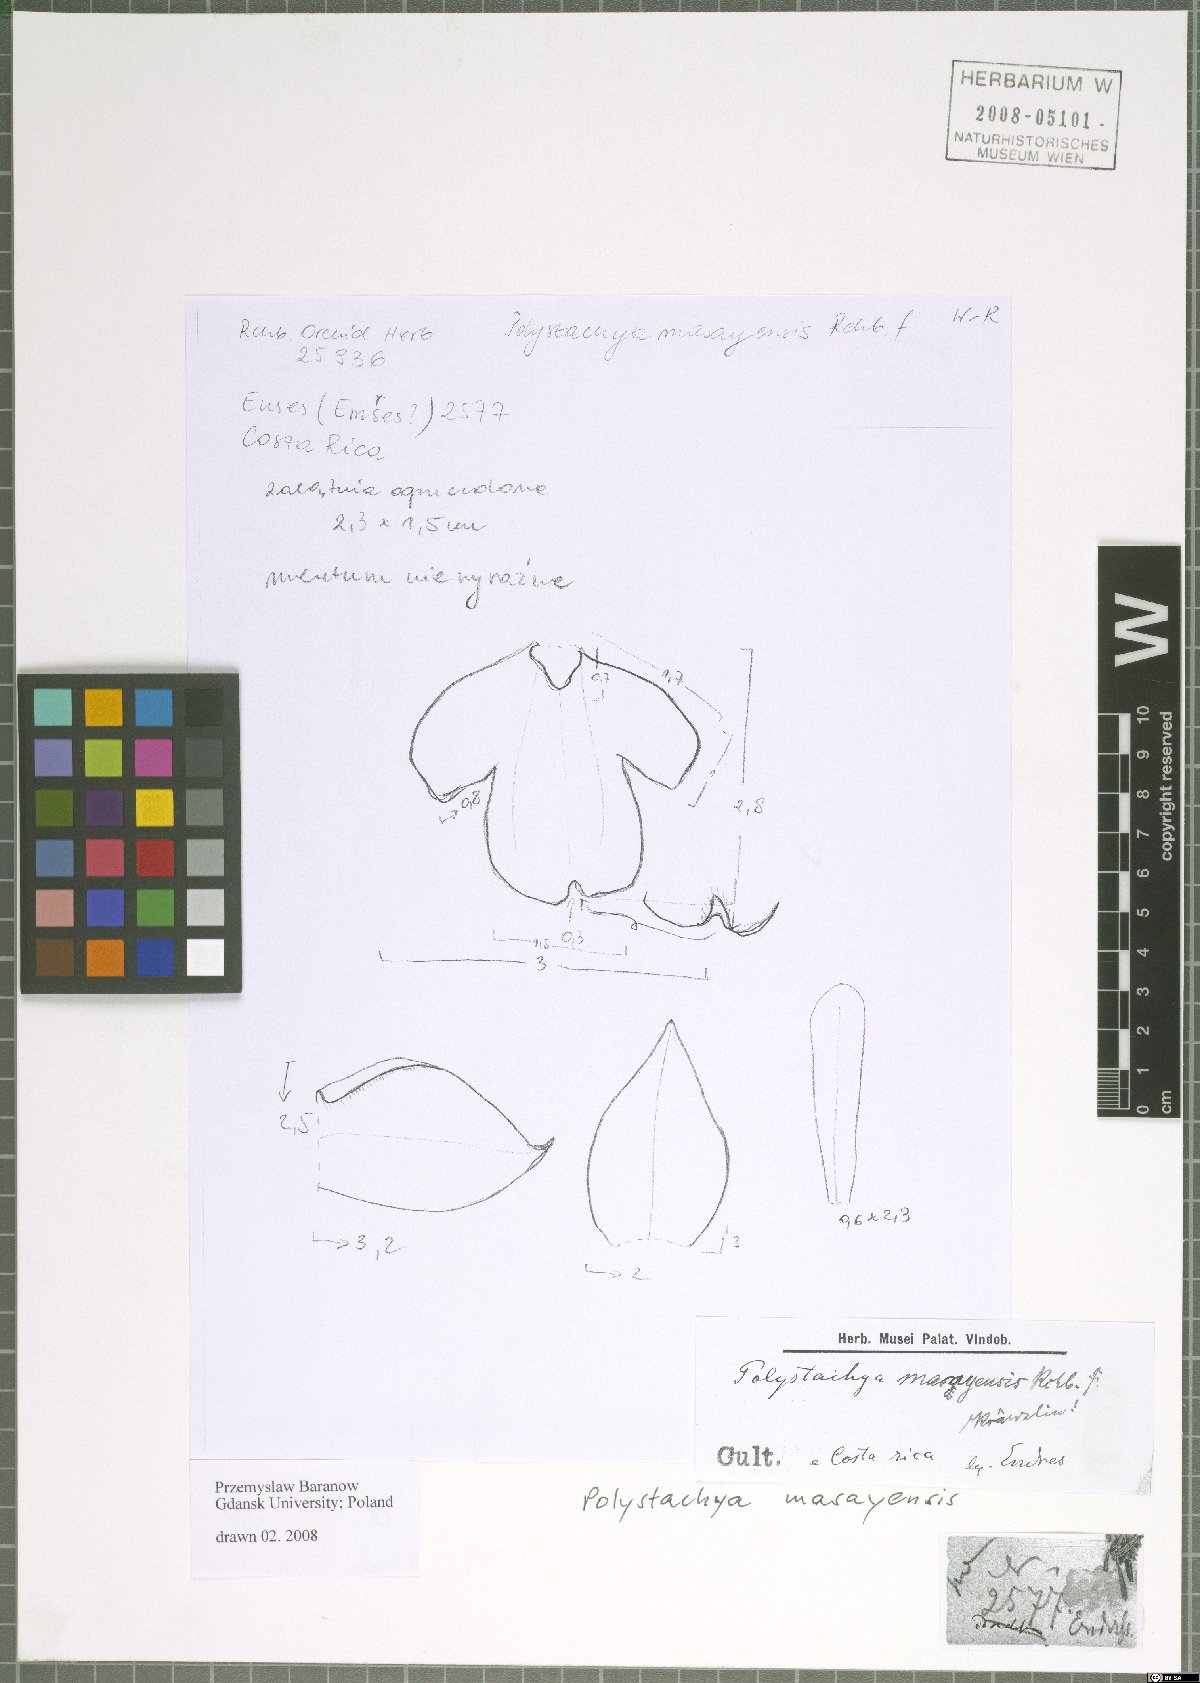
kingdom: Plantae
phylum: Tracheophyta
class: Liliopsida
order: Asparagales
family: Orchidaceae
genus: Polystachya
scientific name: Polystachya masayensis
